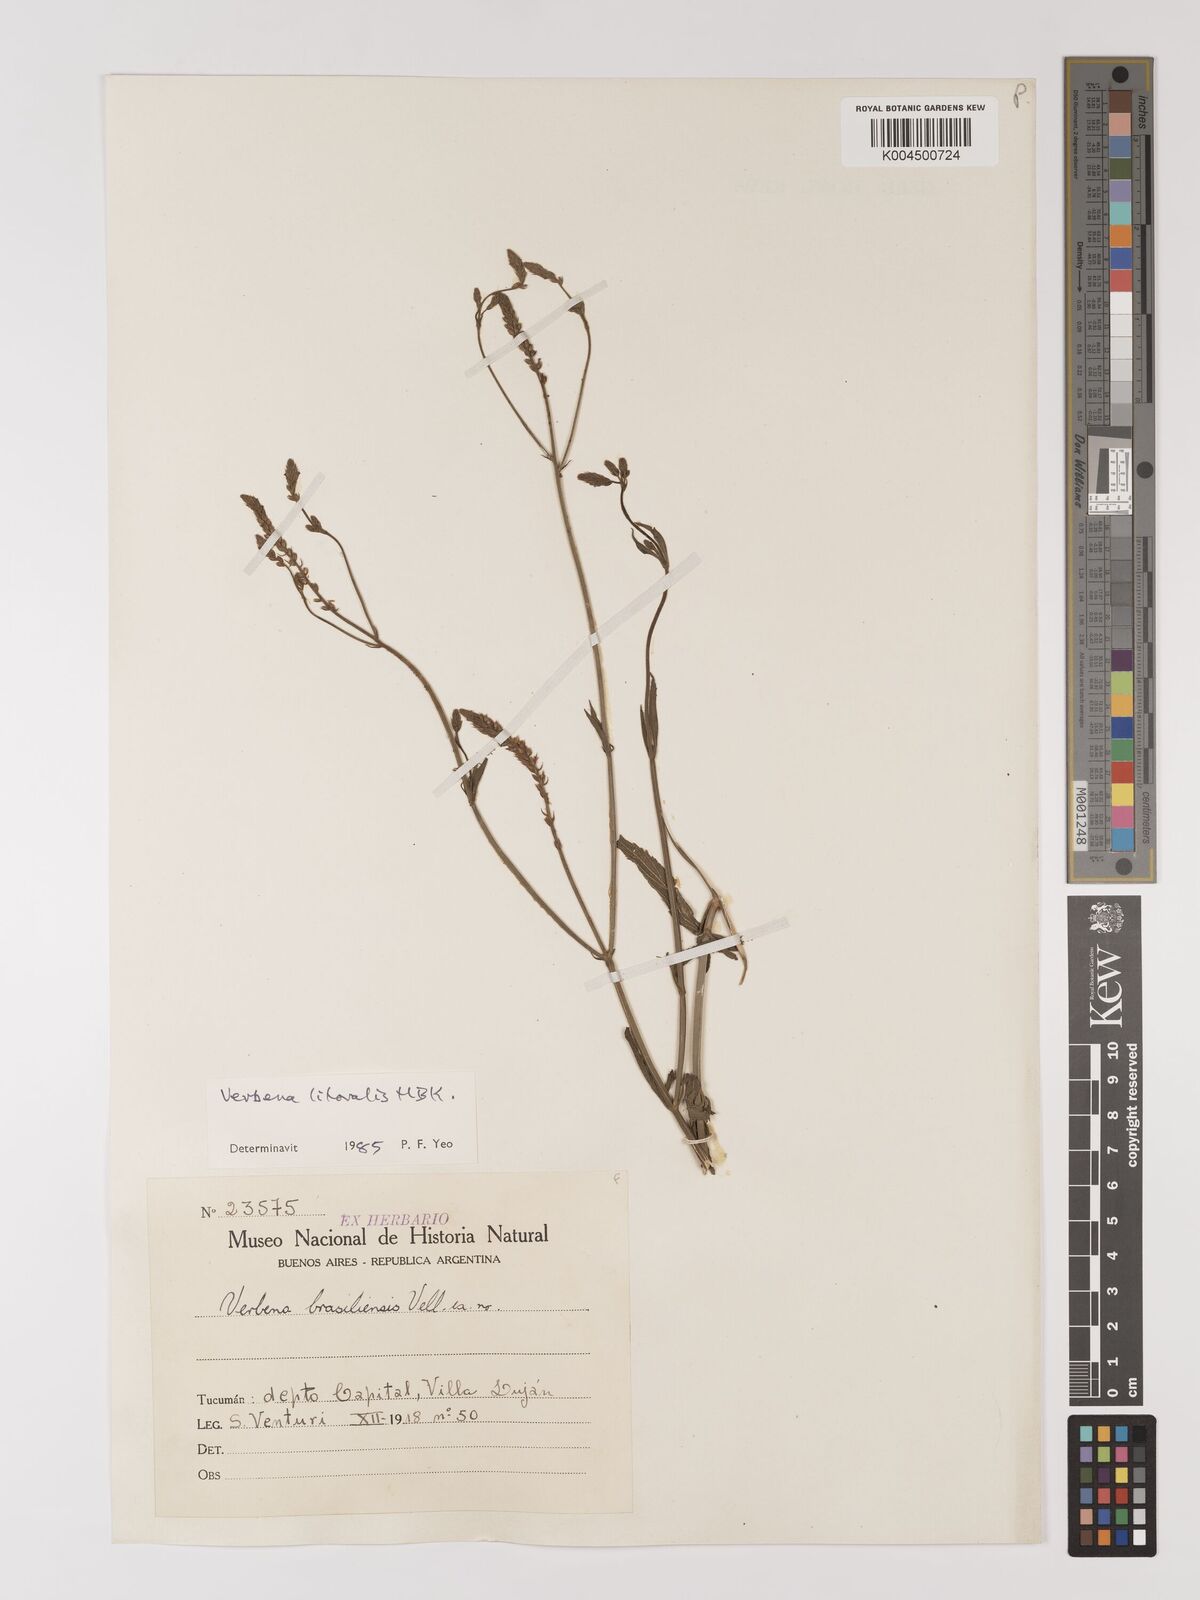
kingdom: Plantae
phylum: Tracheophyta
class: Magnoliopsida
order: Lamiales
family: Verbenaceae
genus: Verbena
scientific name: Verbena litoralis
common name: Seashore vervain
